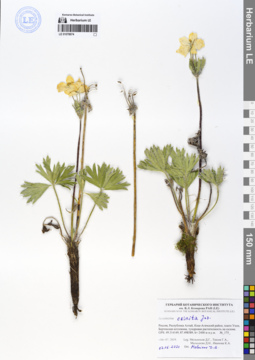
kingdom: Plantae
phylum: Tracheophyta
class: Magnoliopsida
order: Ranunculales
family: Ranunculaceae
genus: Anemonastrum
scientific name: Anemonastrum narcissiflorum
